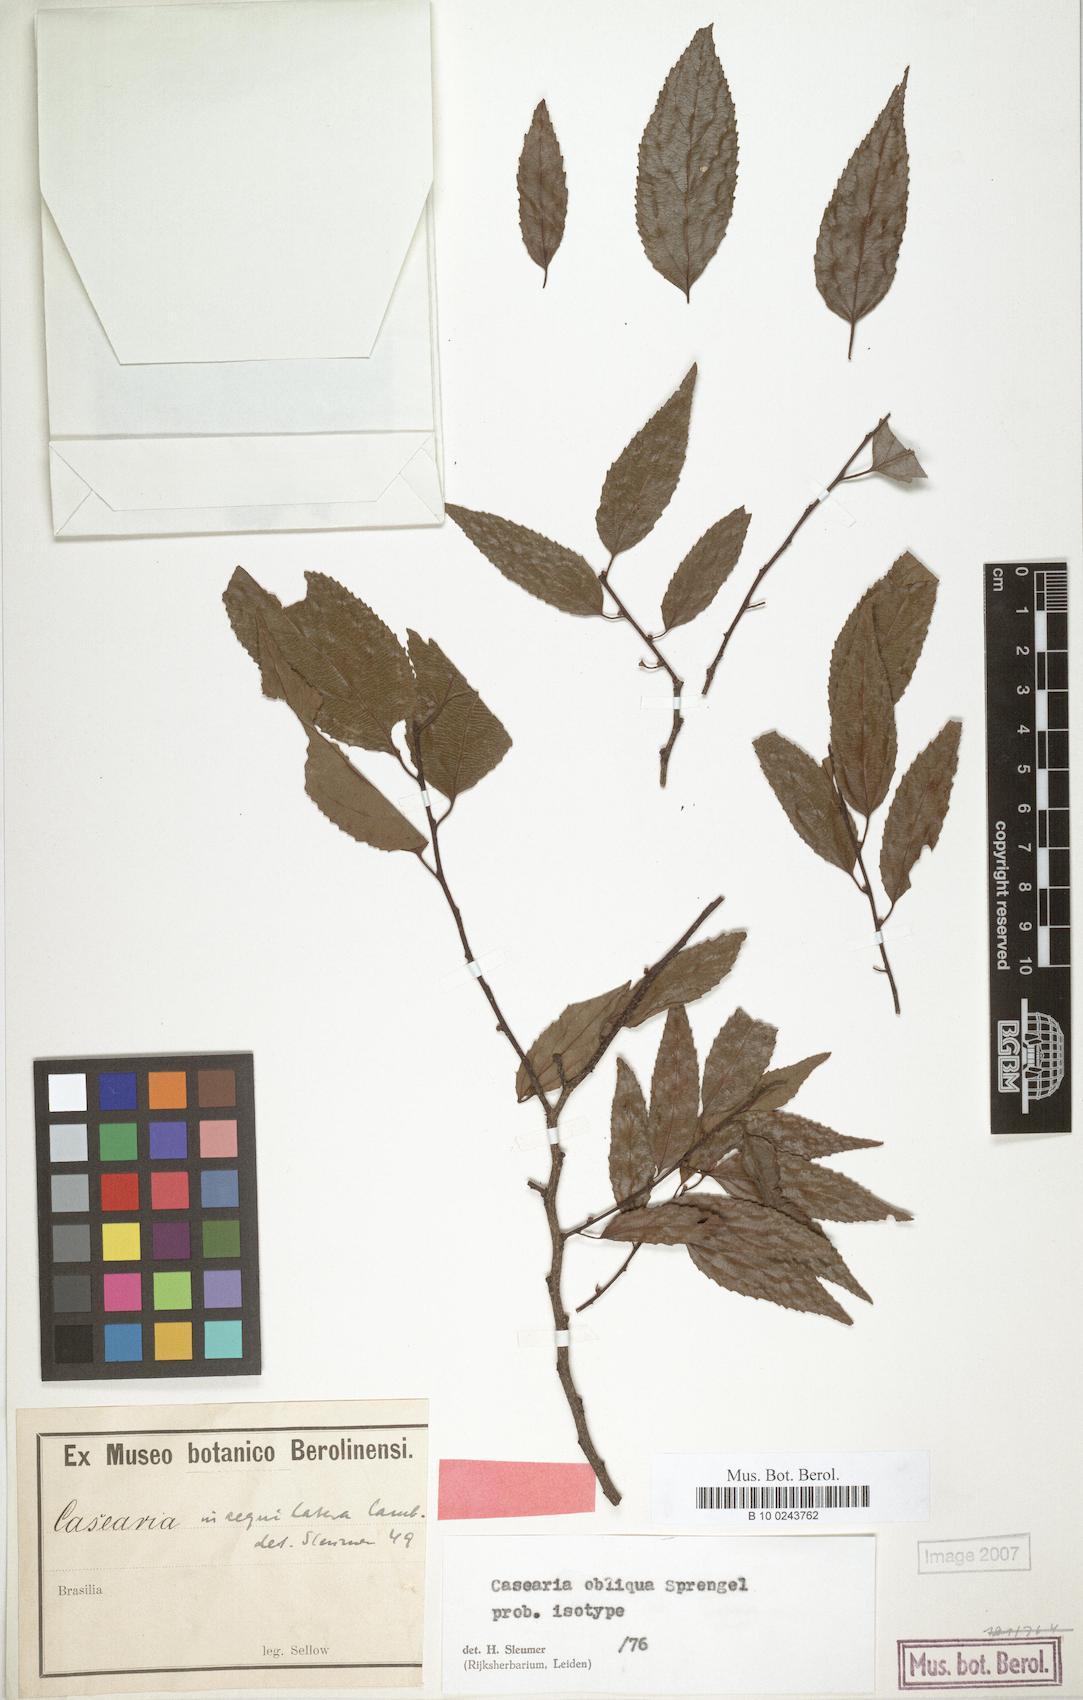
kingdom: Plantae
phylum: Tracheophyta
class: Magnoliopsida
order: Malpighiales
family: Salicaceae
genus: Casearia
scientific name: Casearia obliqua
